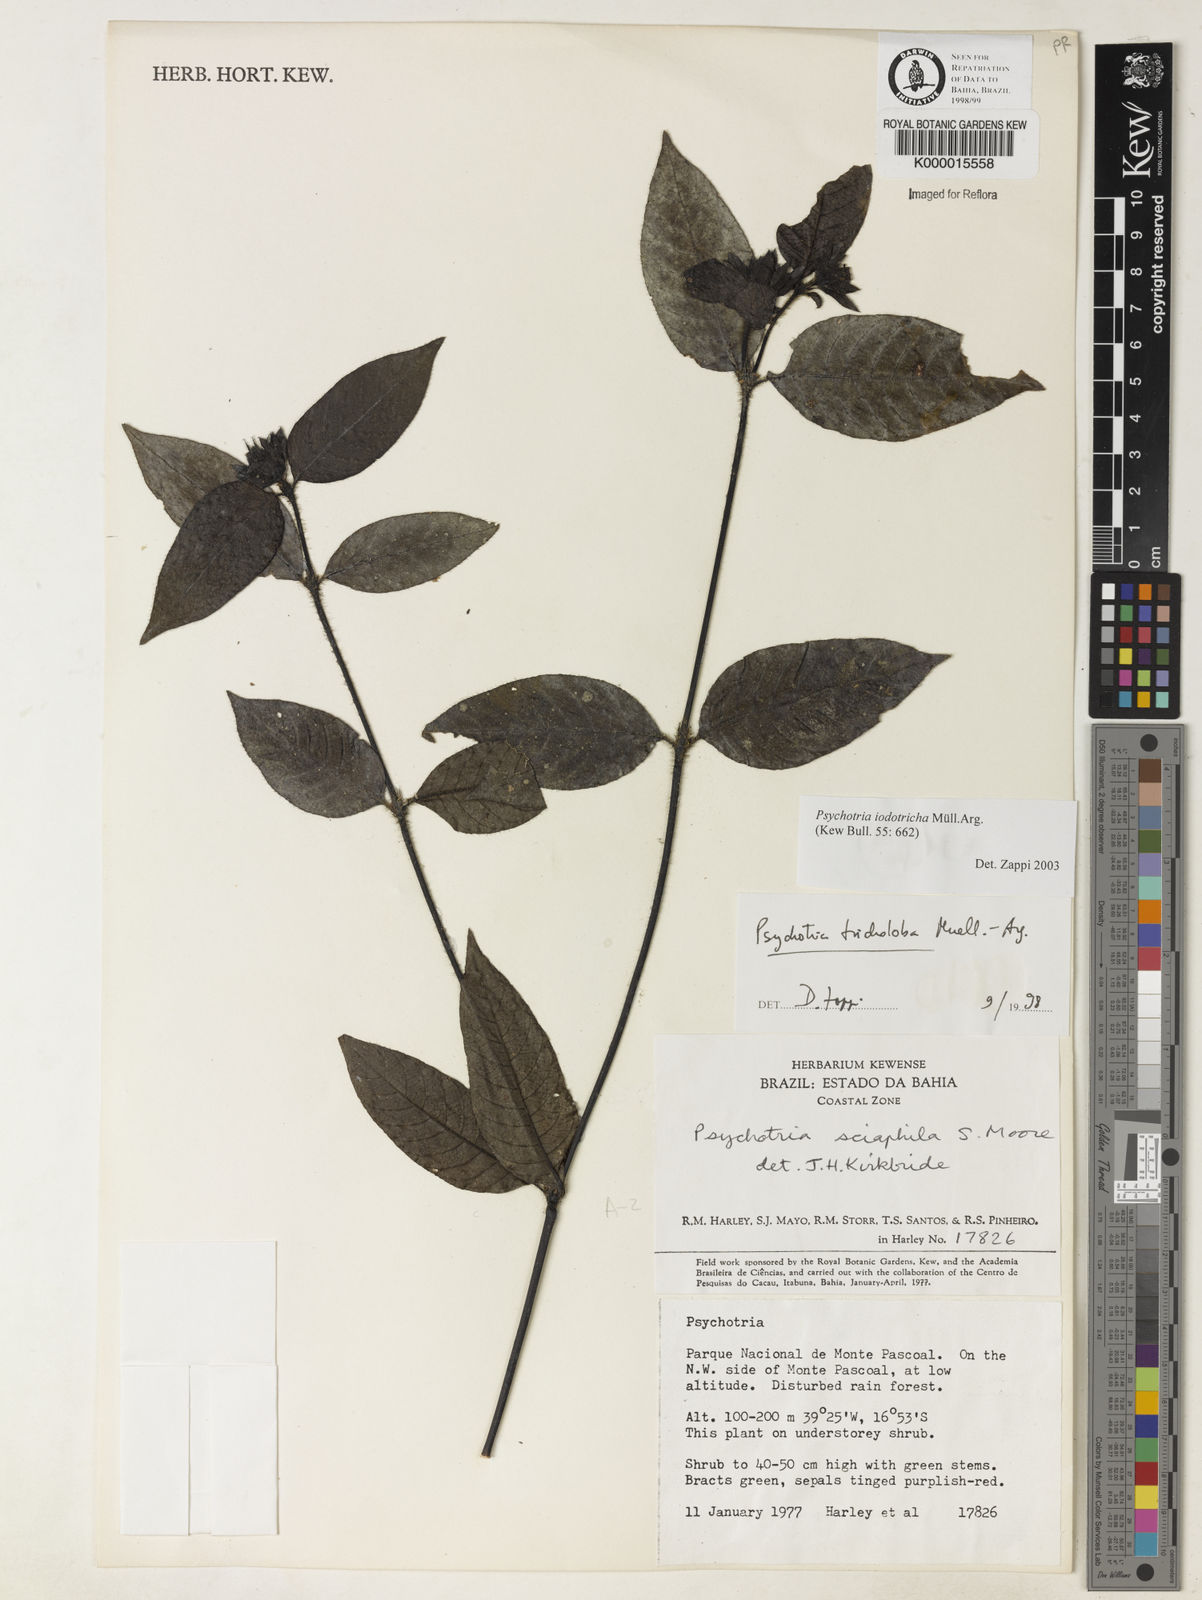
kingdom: Plantae
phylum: Tracheophyta
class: Magnoliopsida
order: Gentianales
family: Rubiaceae
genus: Palicourea
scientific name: Palicourea iodotricha
